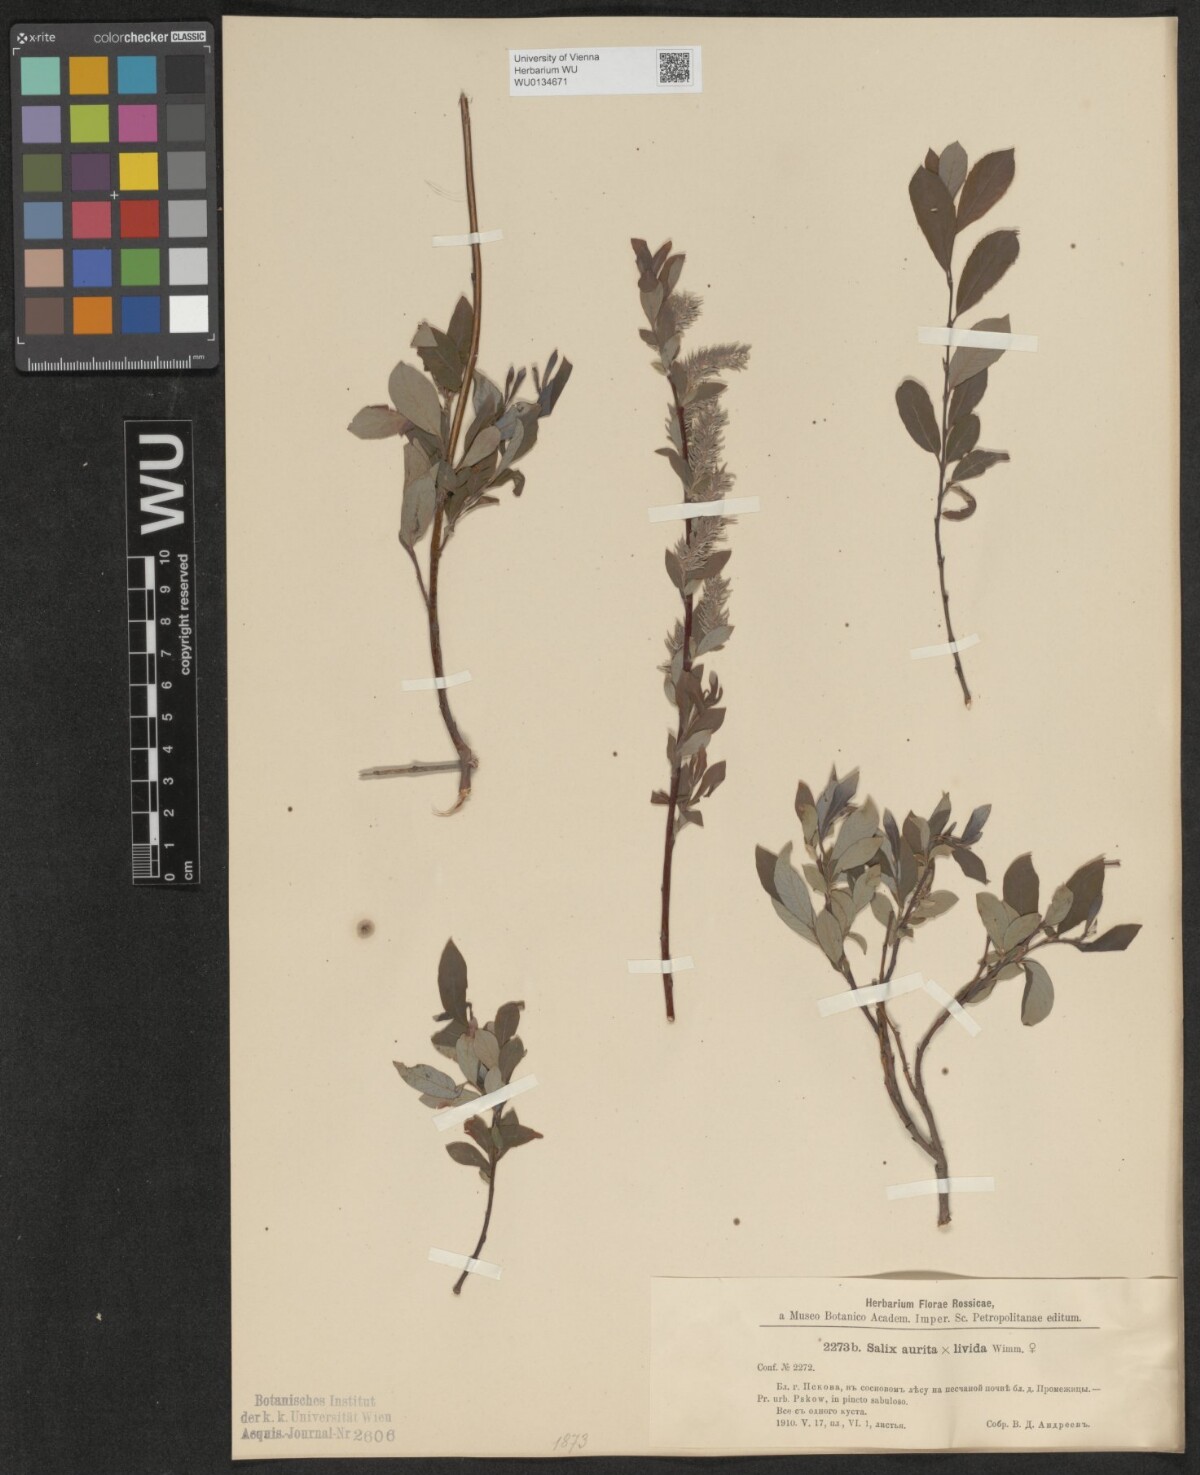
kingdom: Plantae
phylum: Tracheophyta
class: Magnoliopsida
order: Malpighiales
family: Salicaceae
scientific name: Salicaceae
